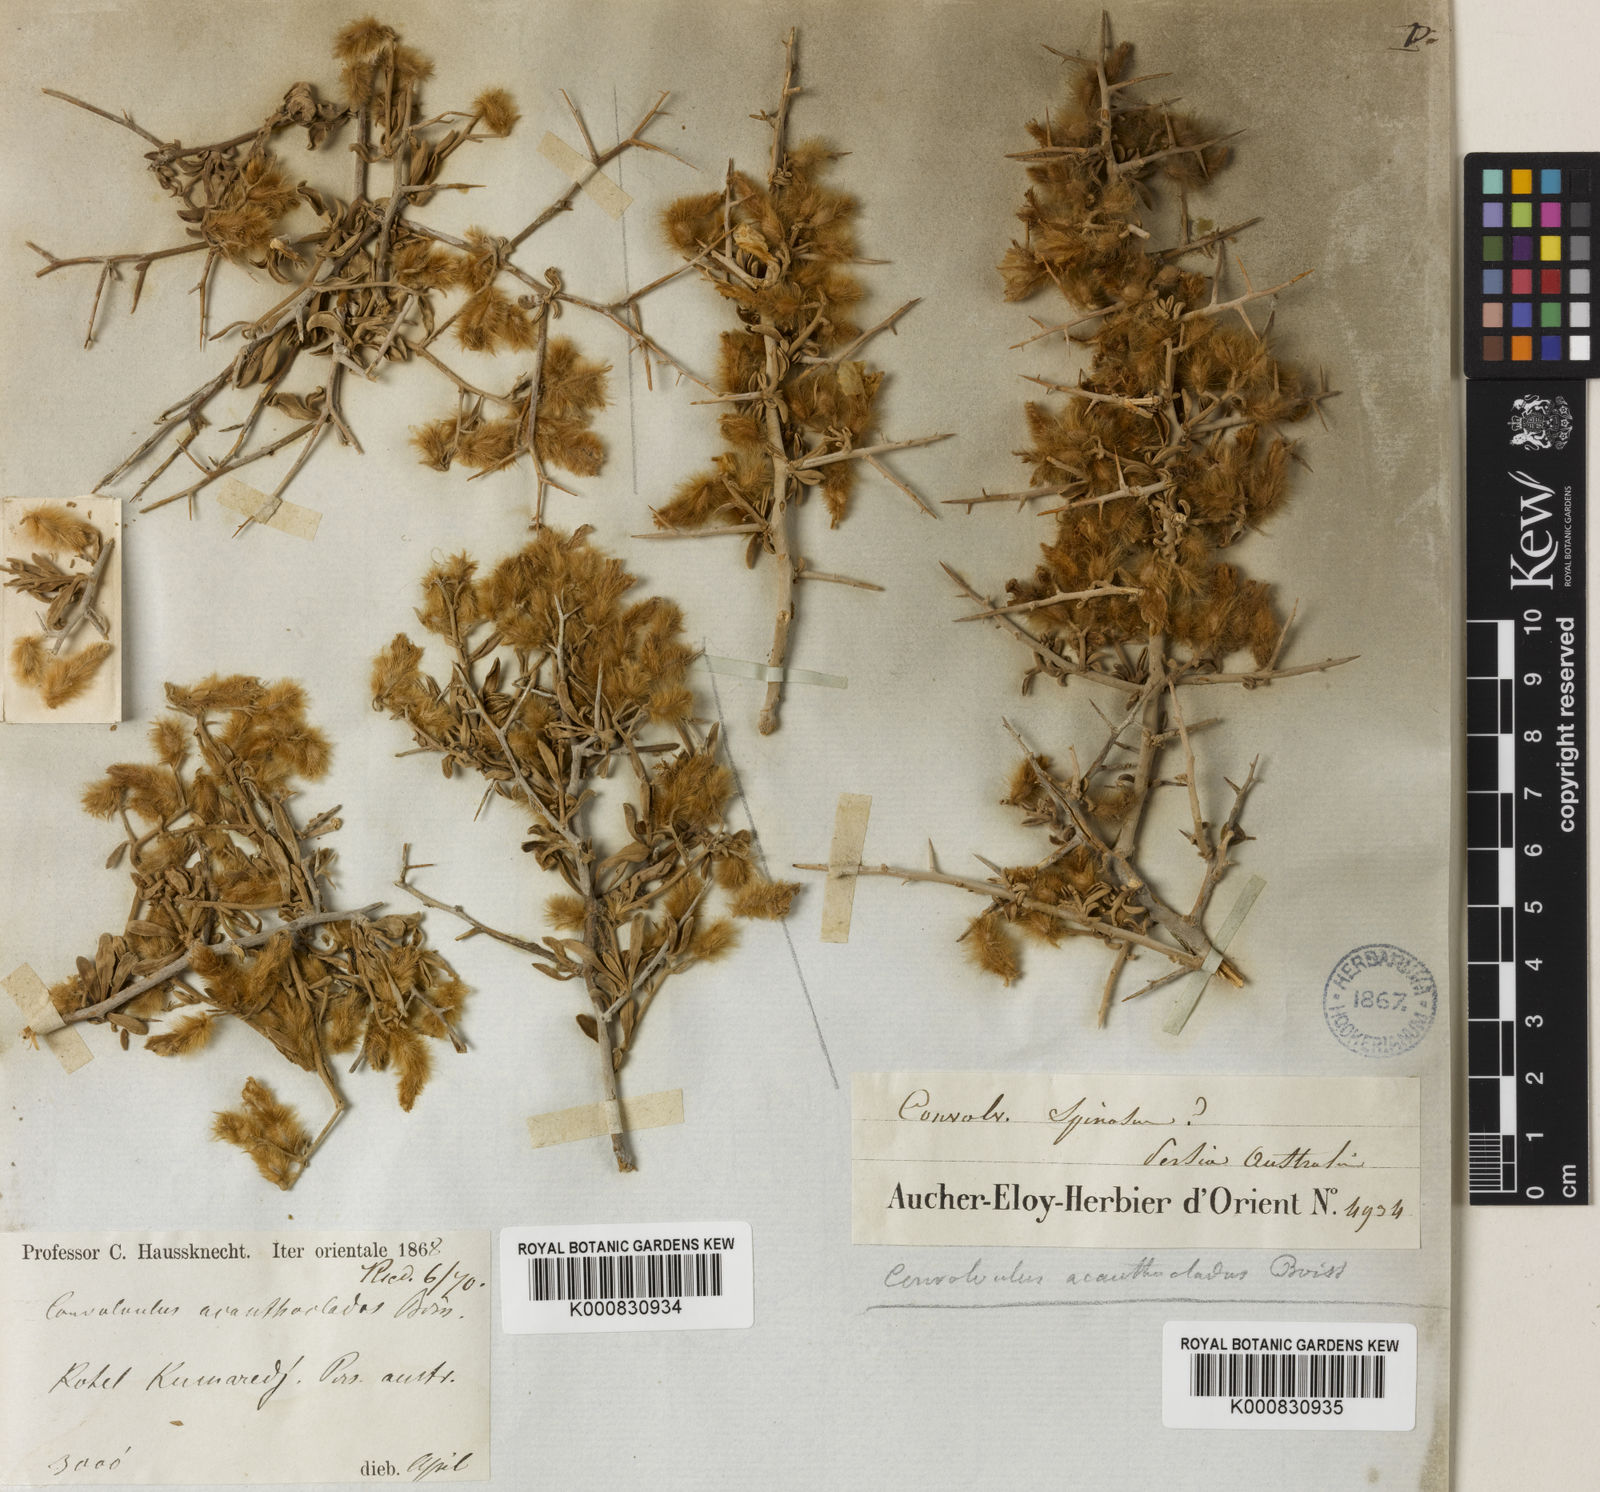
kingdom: Plantae
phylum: Tracheophyta
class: Magnoliopsida
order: Solanales
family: Convolvulaceae
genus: Convolvulus
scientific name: Convolvulus acanthocladus
